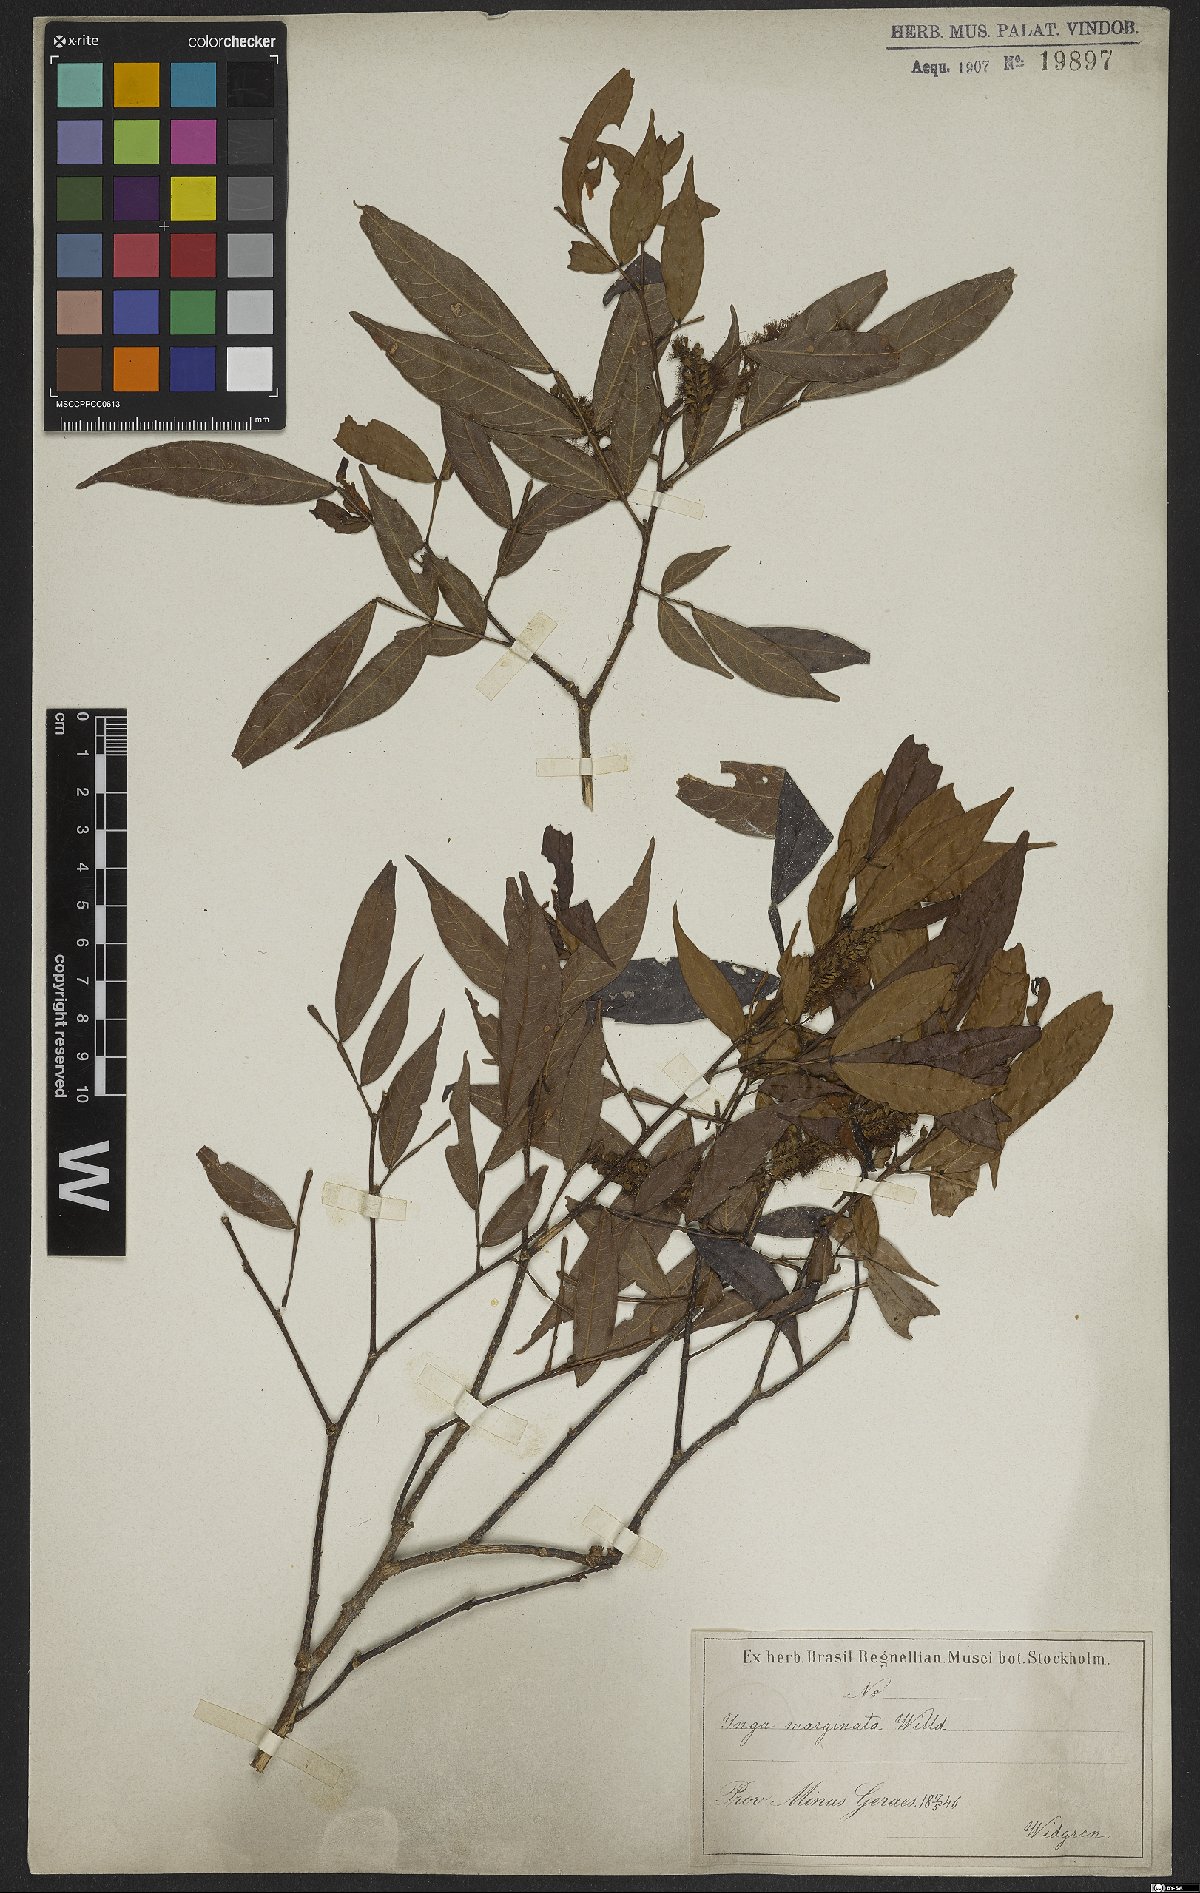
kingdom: Plantae
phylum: Tracheophyta
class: Magnoliopsida
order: Fabales
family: Fabaceae
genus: Inga
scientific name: Inga marginata
